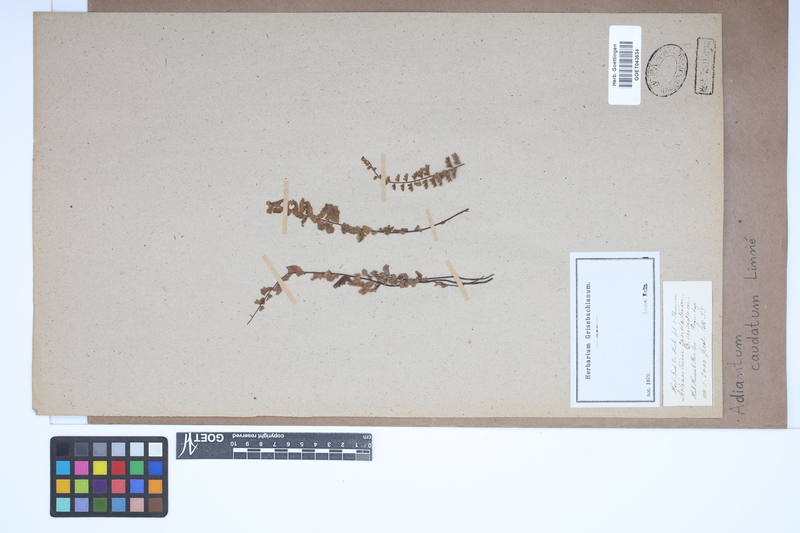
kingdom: Plantae
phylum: Tracheophyta
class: Polypodiopsida
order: Polypodiales
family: Pteridaceae
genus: Adiantum
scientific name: Adiantum caudatum
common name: Tailed maidenhair
